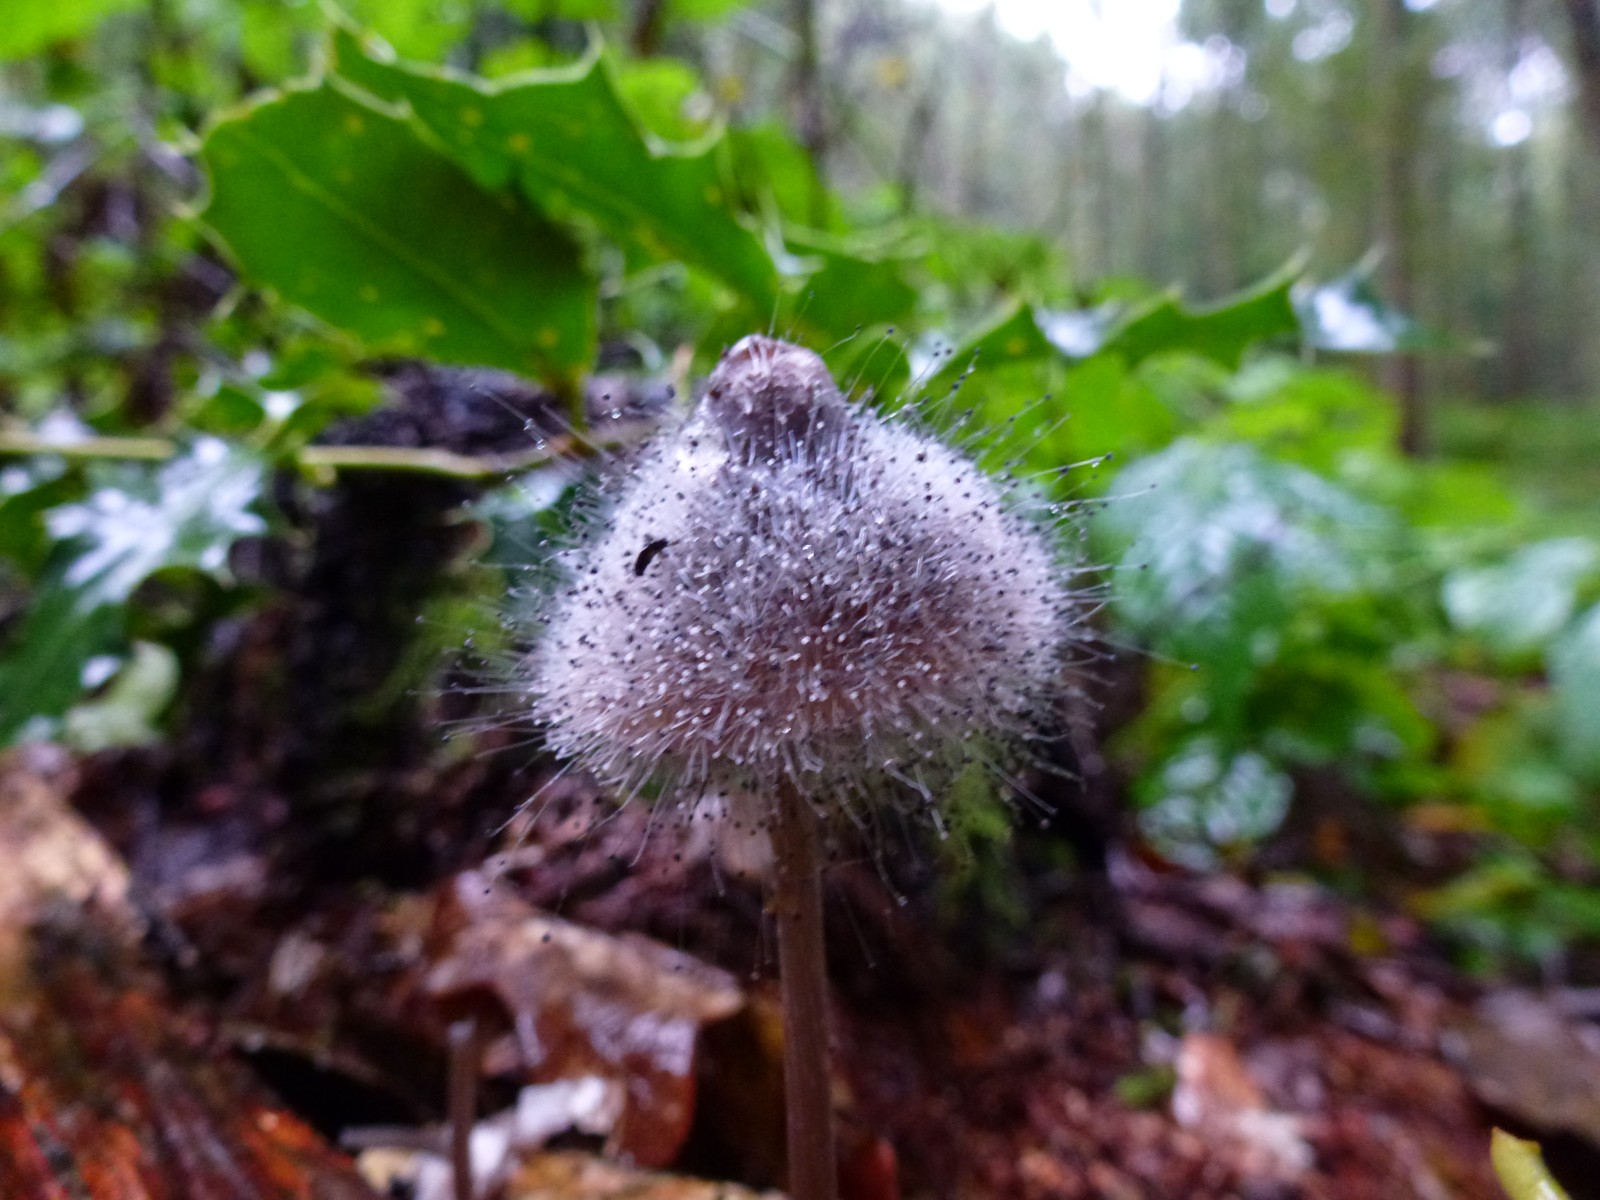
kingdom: Fungi
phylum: Mucoromycota
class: Mucoromycetes
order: Mucorales
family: Phycomycetaceae
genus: Spinellus
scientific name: Spinellus fusiger
